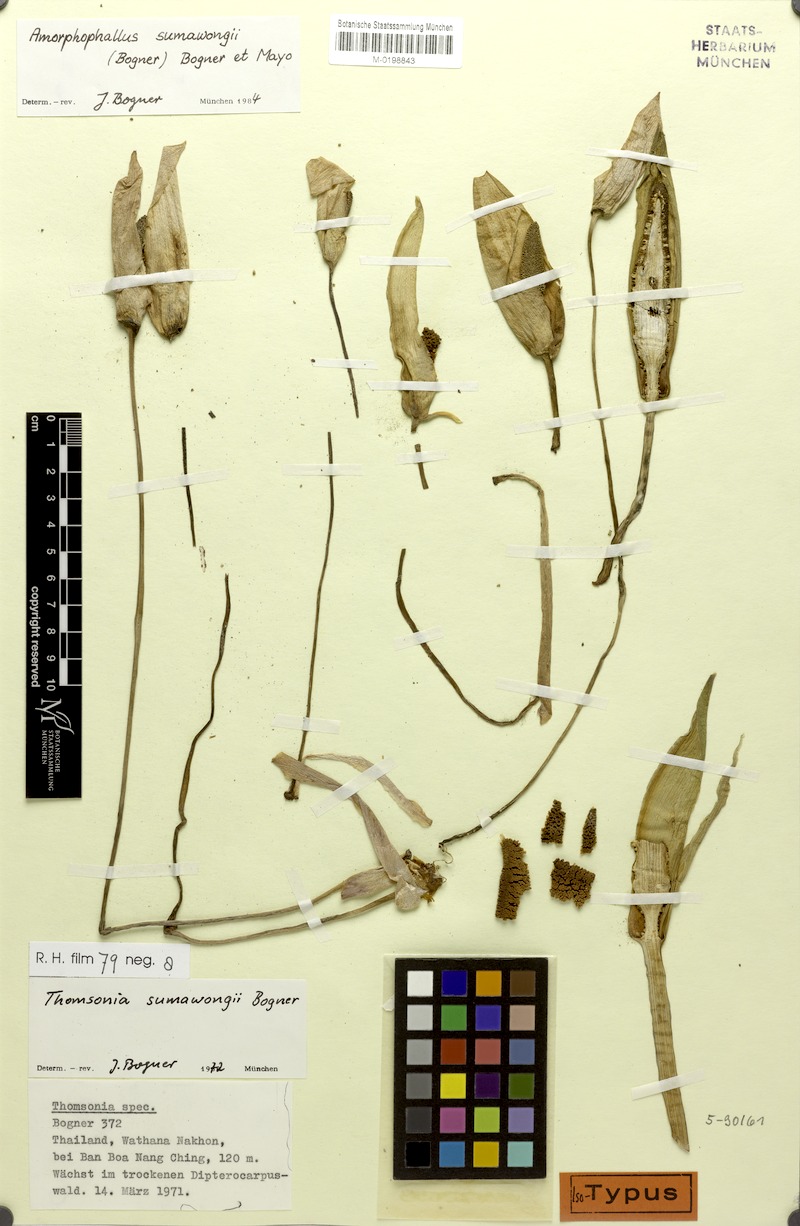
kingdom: Plantae
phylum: Tracheophyta
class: Liliopsida
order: Alismatales
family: Araceae
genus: Amorphophallus
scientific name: Amorphophallus sumawongii
